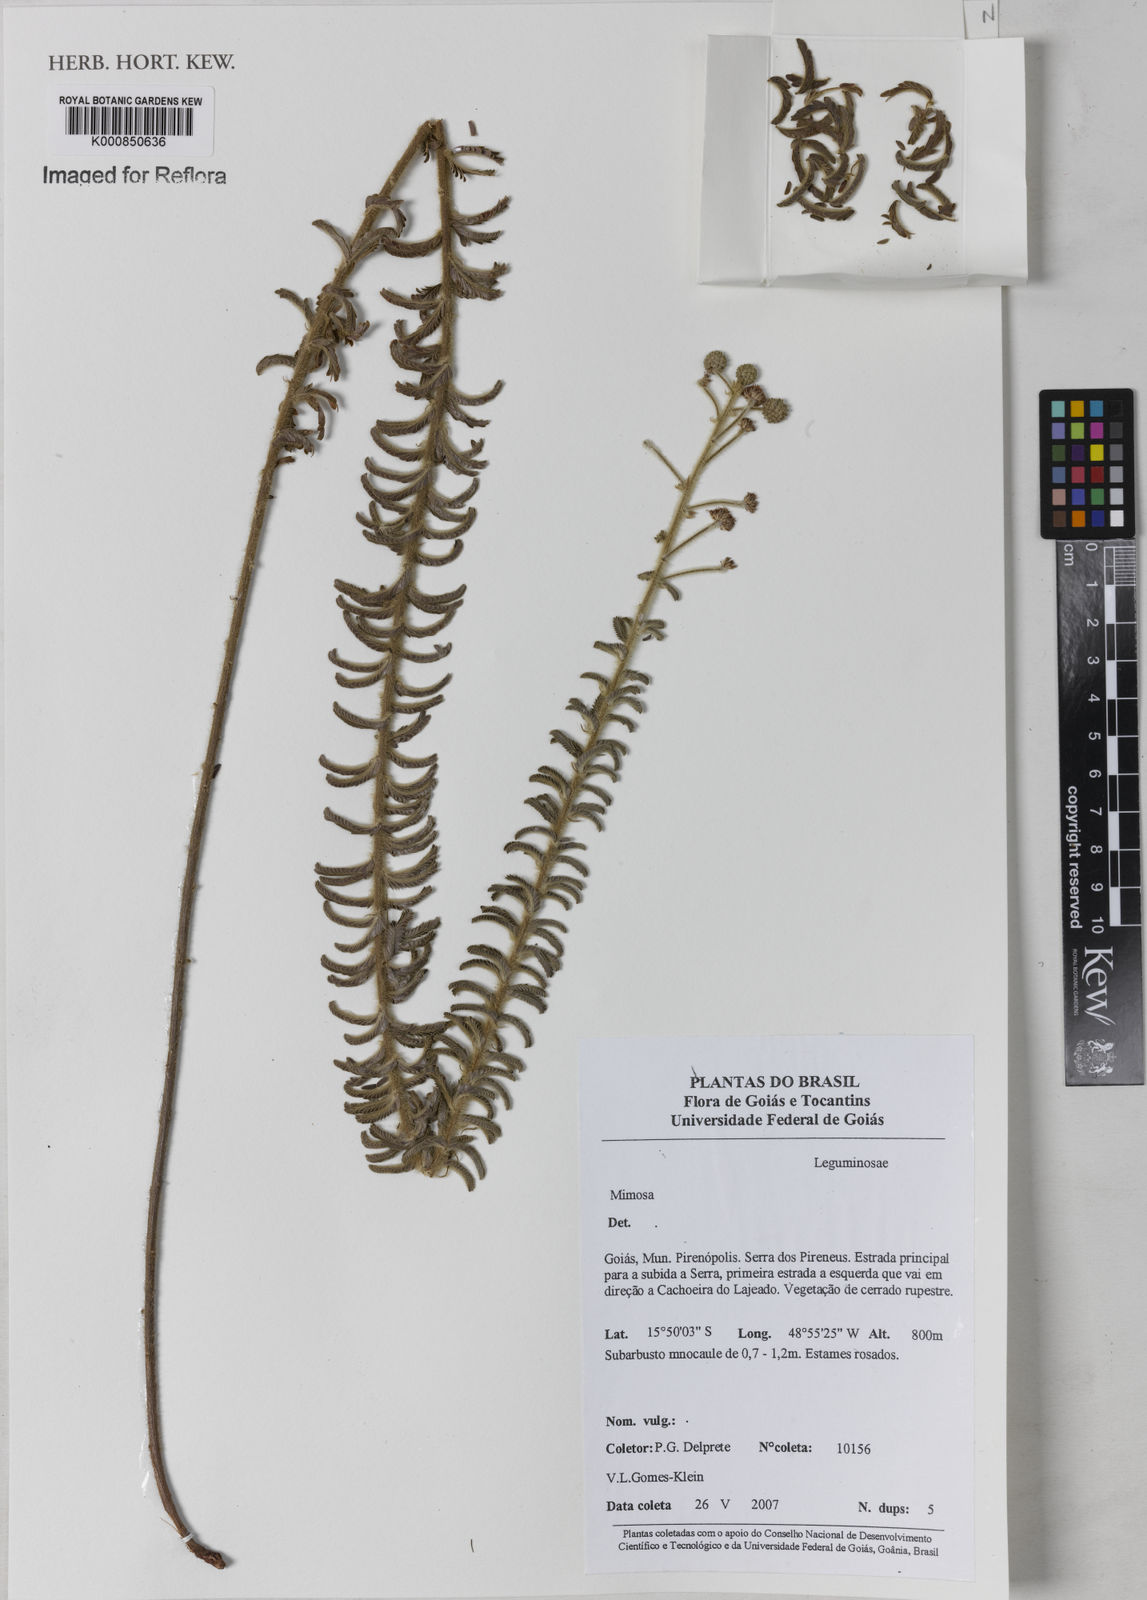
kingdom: Plantae
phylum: Tracheophyta
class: Magnoliopsida
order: Fabales
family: Fabaceae
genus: Mimosa
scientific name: Mimosa
